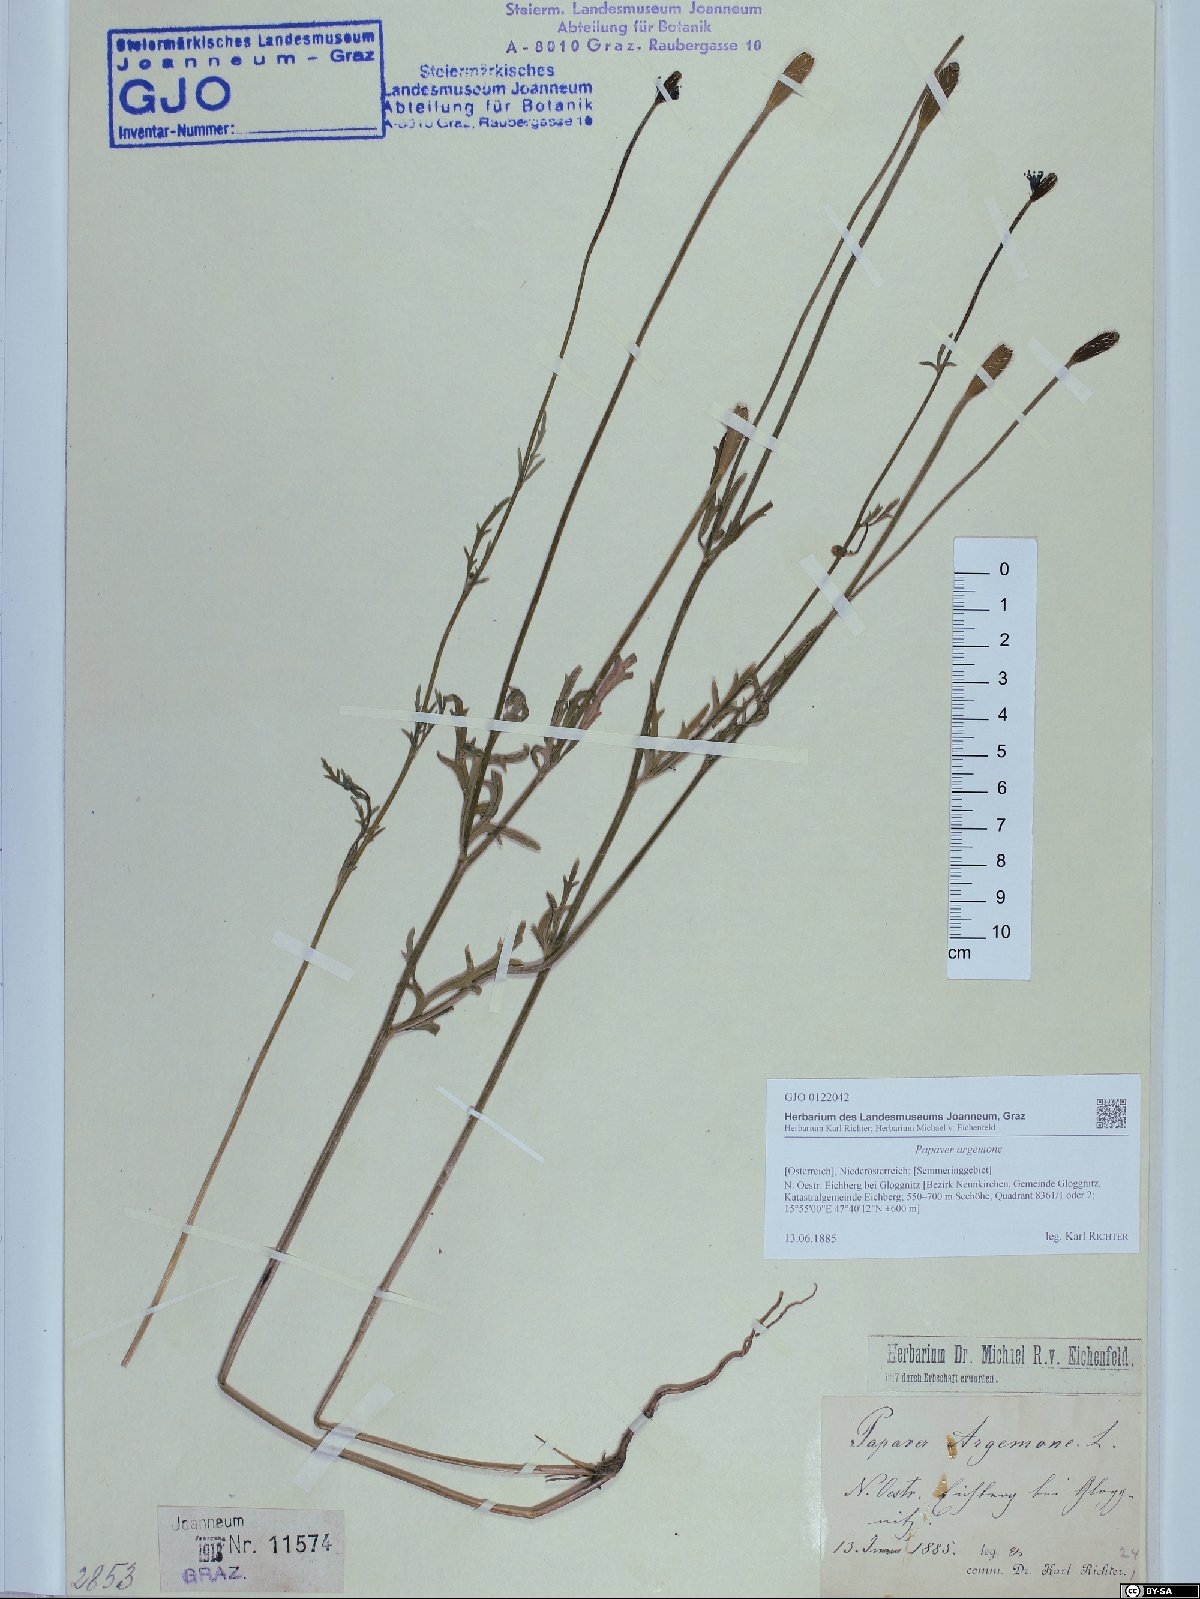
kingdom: Plantae
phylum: Tracheophyta
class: Magnoliopsida
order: Ranunculales
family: Papaveraceae
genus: Roemeria
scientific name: Roemeria argemone
